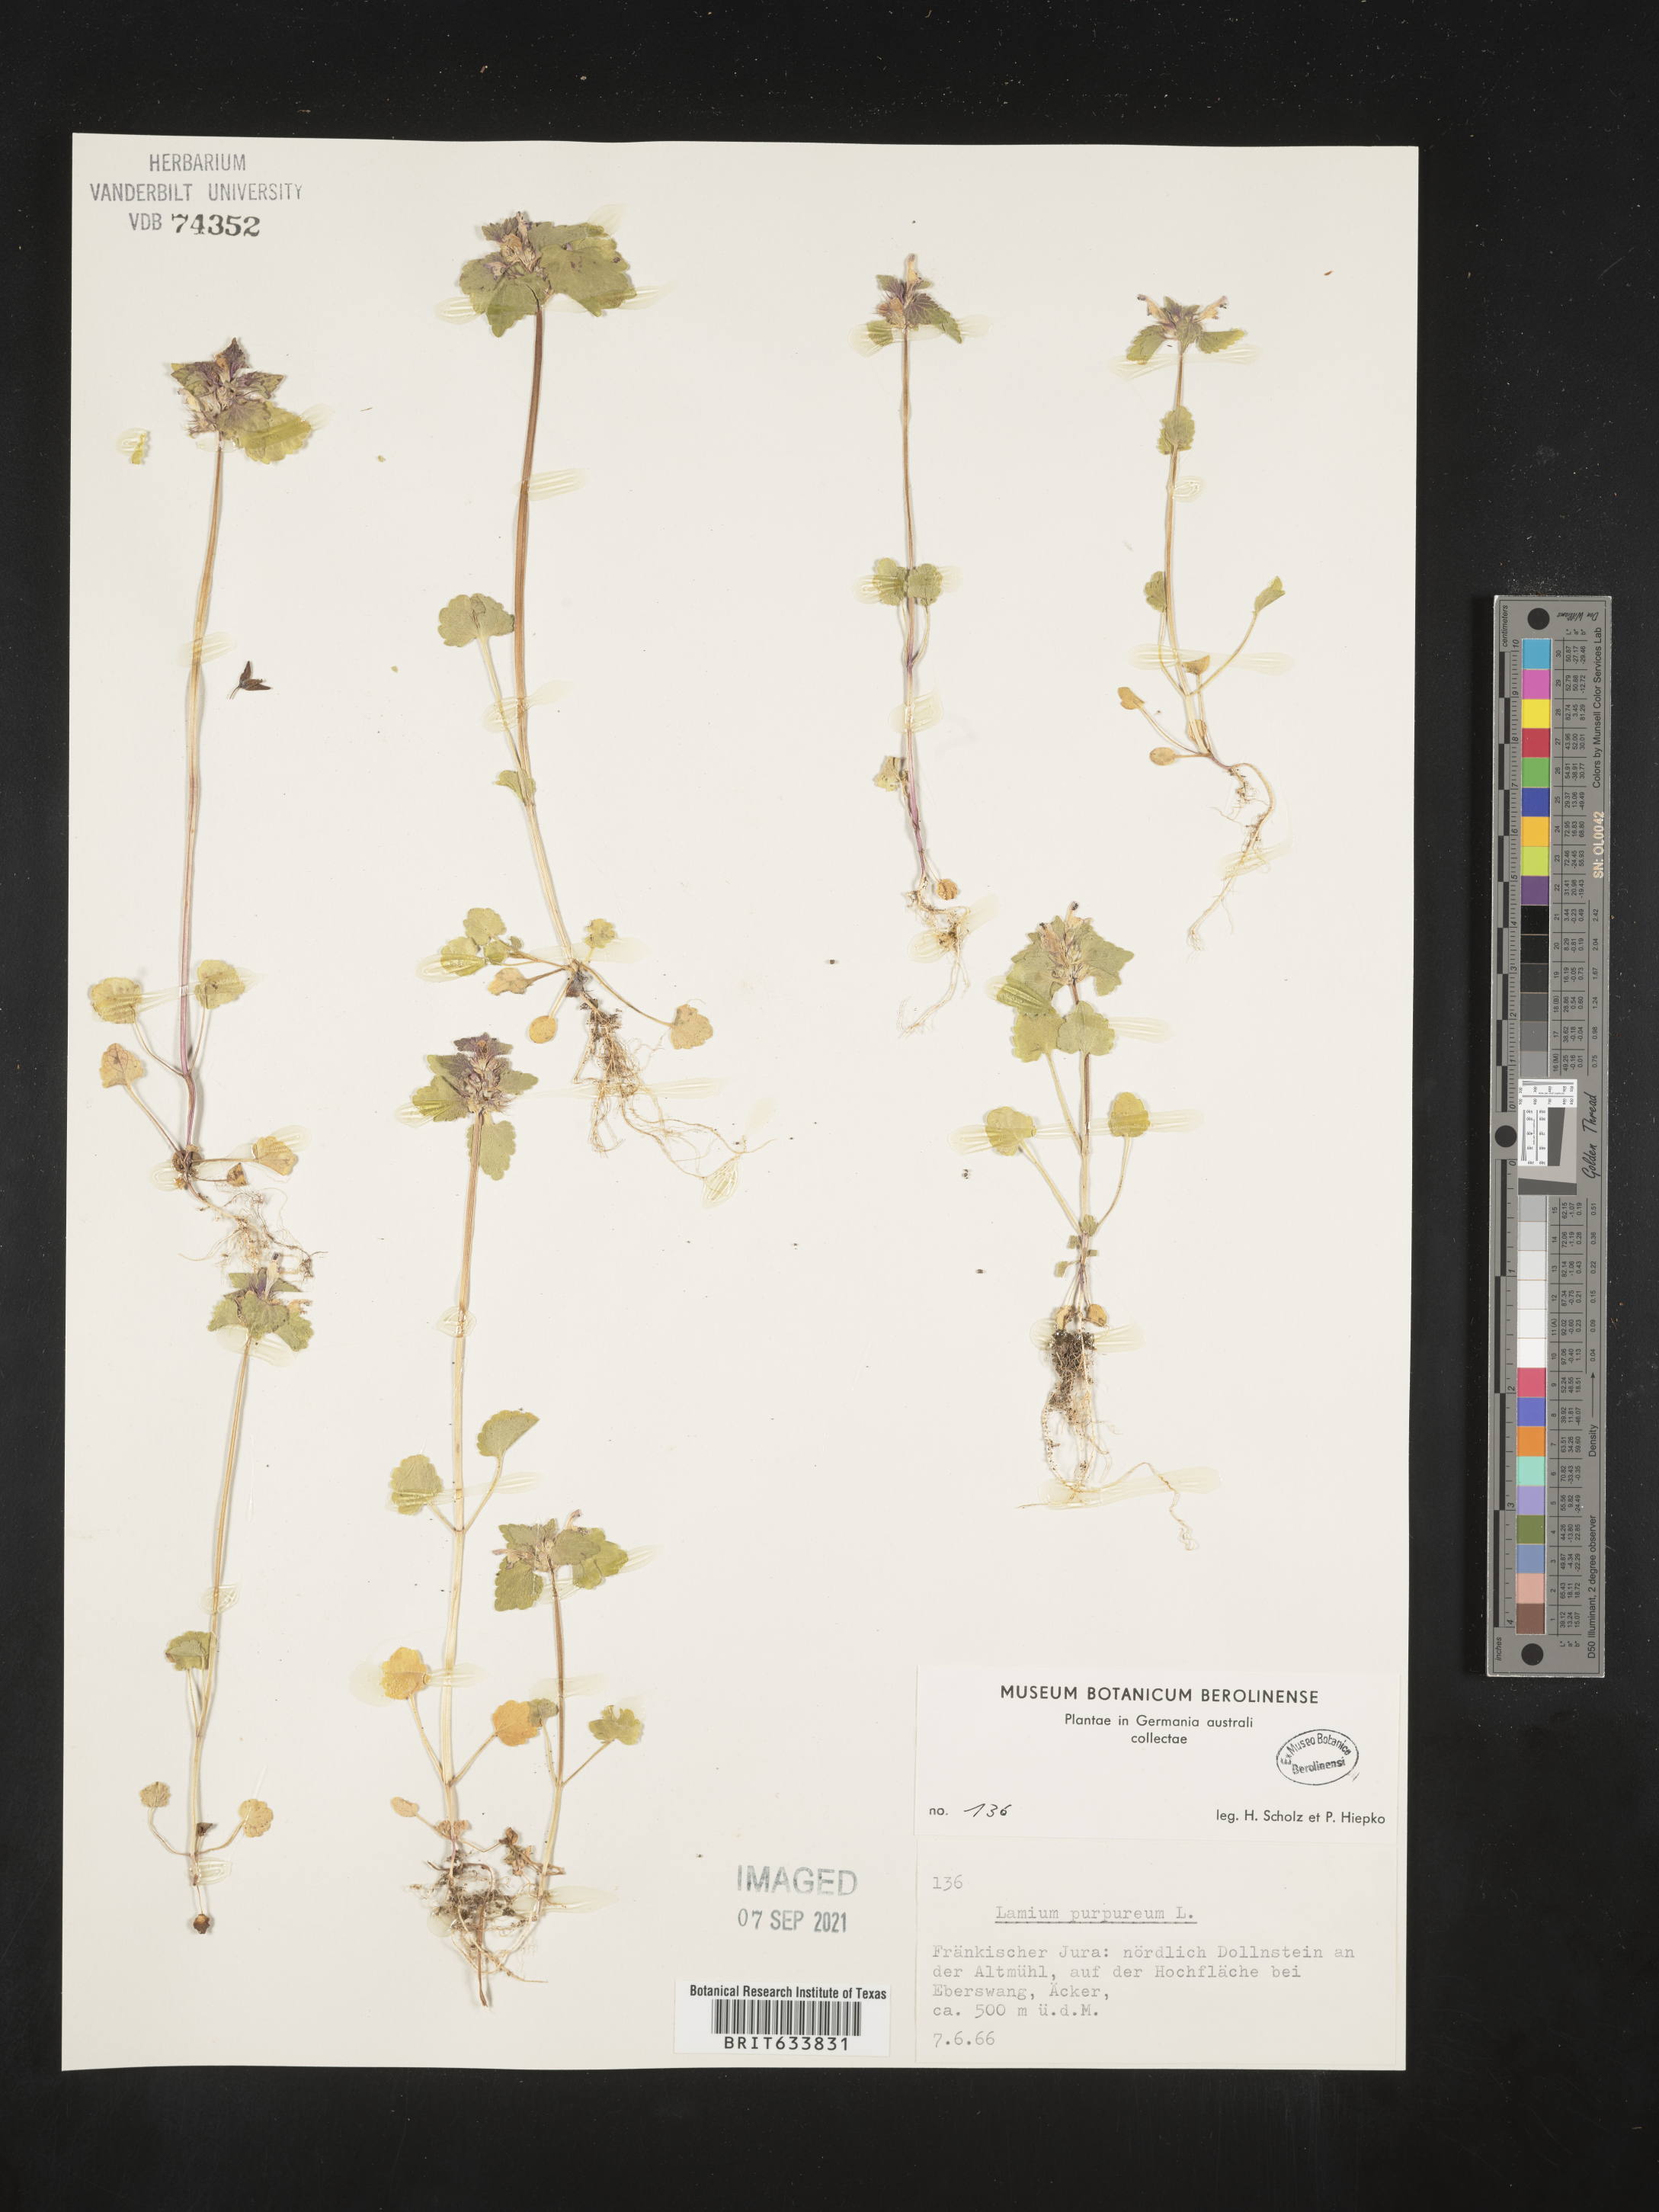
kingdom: Plantae
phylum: Tracheophyta
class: Magnoliopsida
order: Lamiales
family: Lamiaceae
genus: Lamium
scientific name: Lamium
